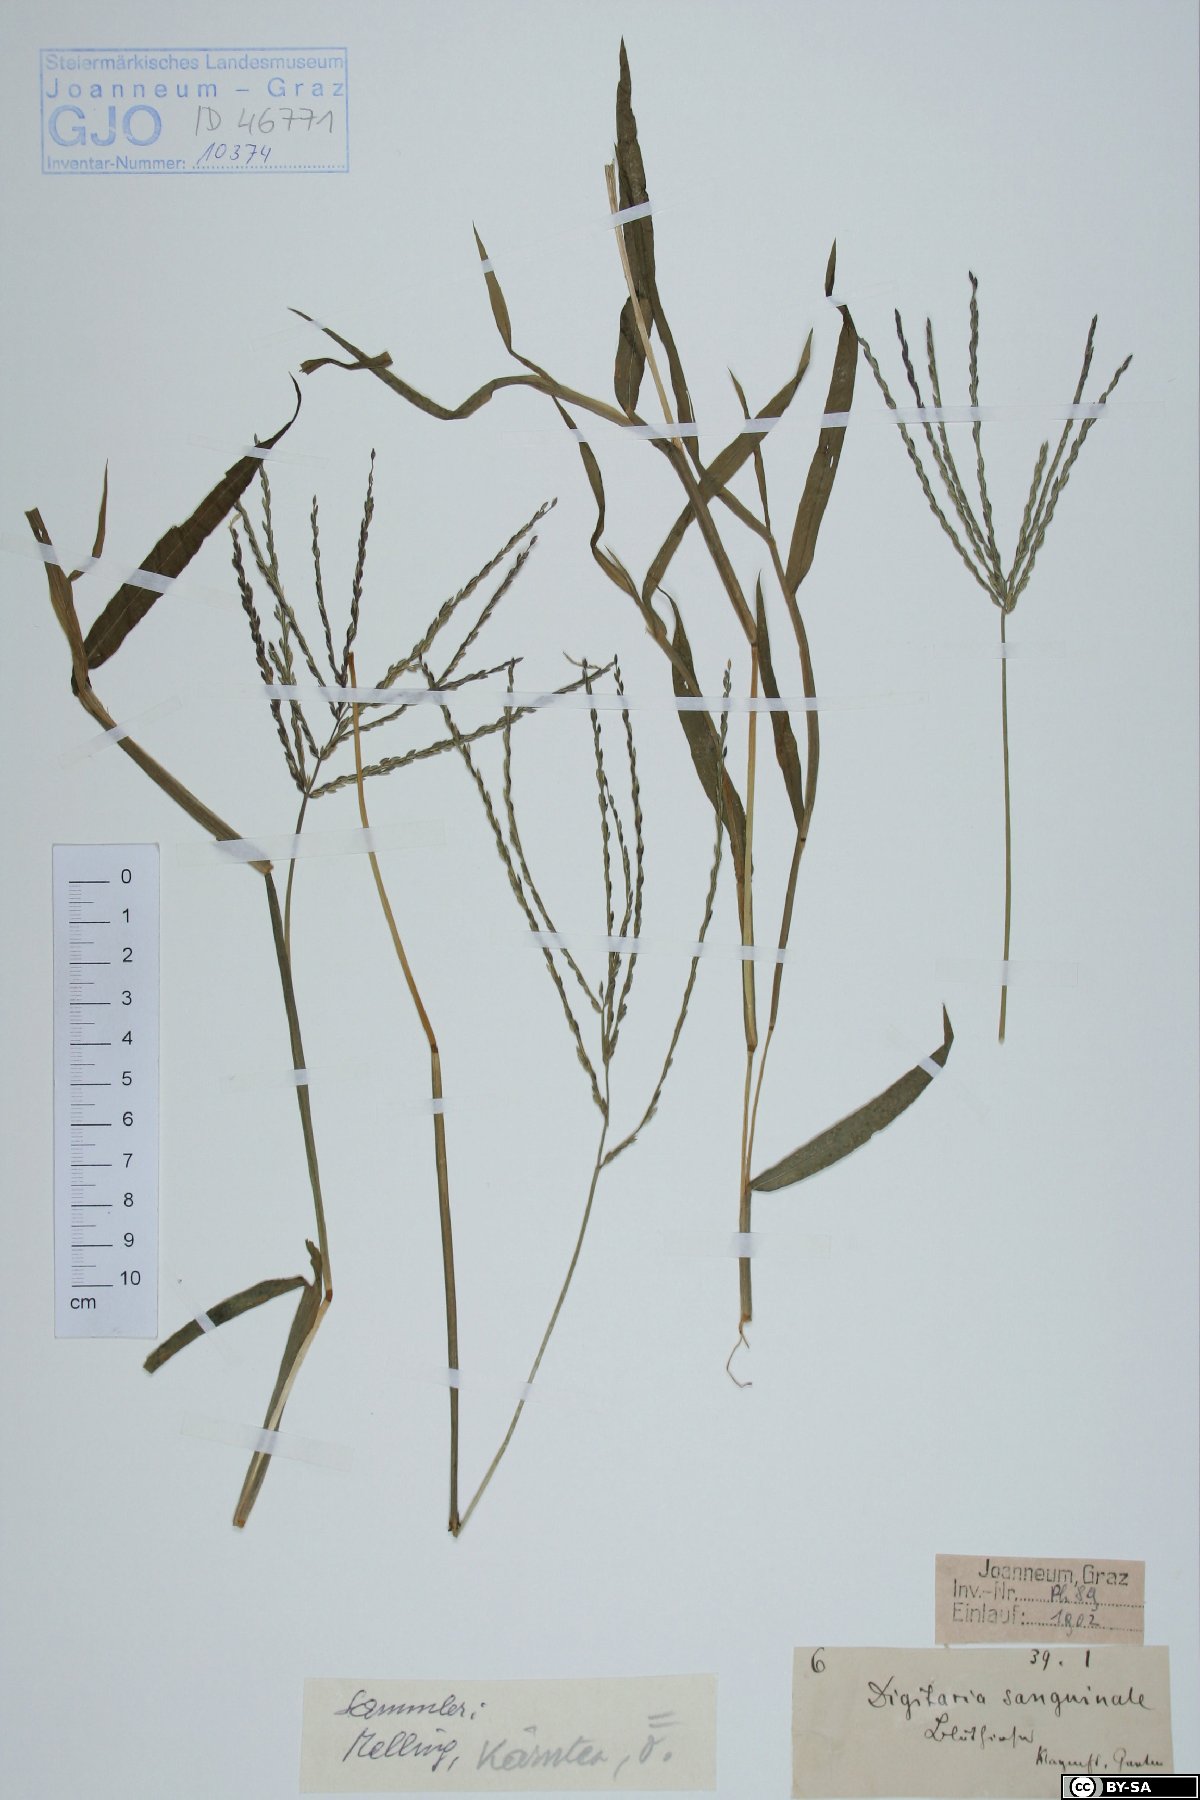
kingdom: Plantae
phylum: Tracheophyta
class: Liliopsida
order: Poales
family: Poaceae
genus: Digitaria
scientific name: Digitaria sanguinalis
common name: Hairy crabgrass
